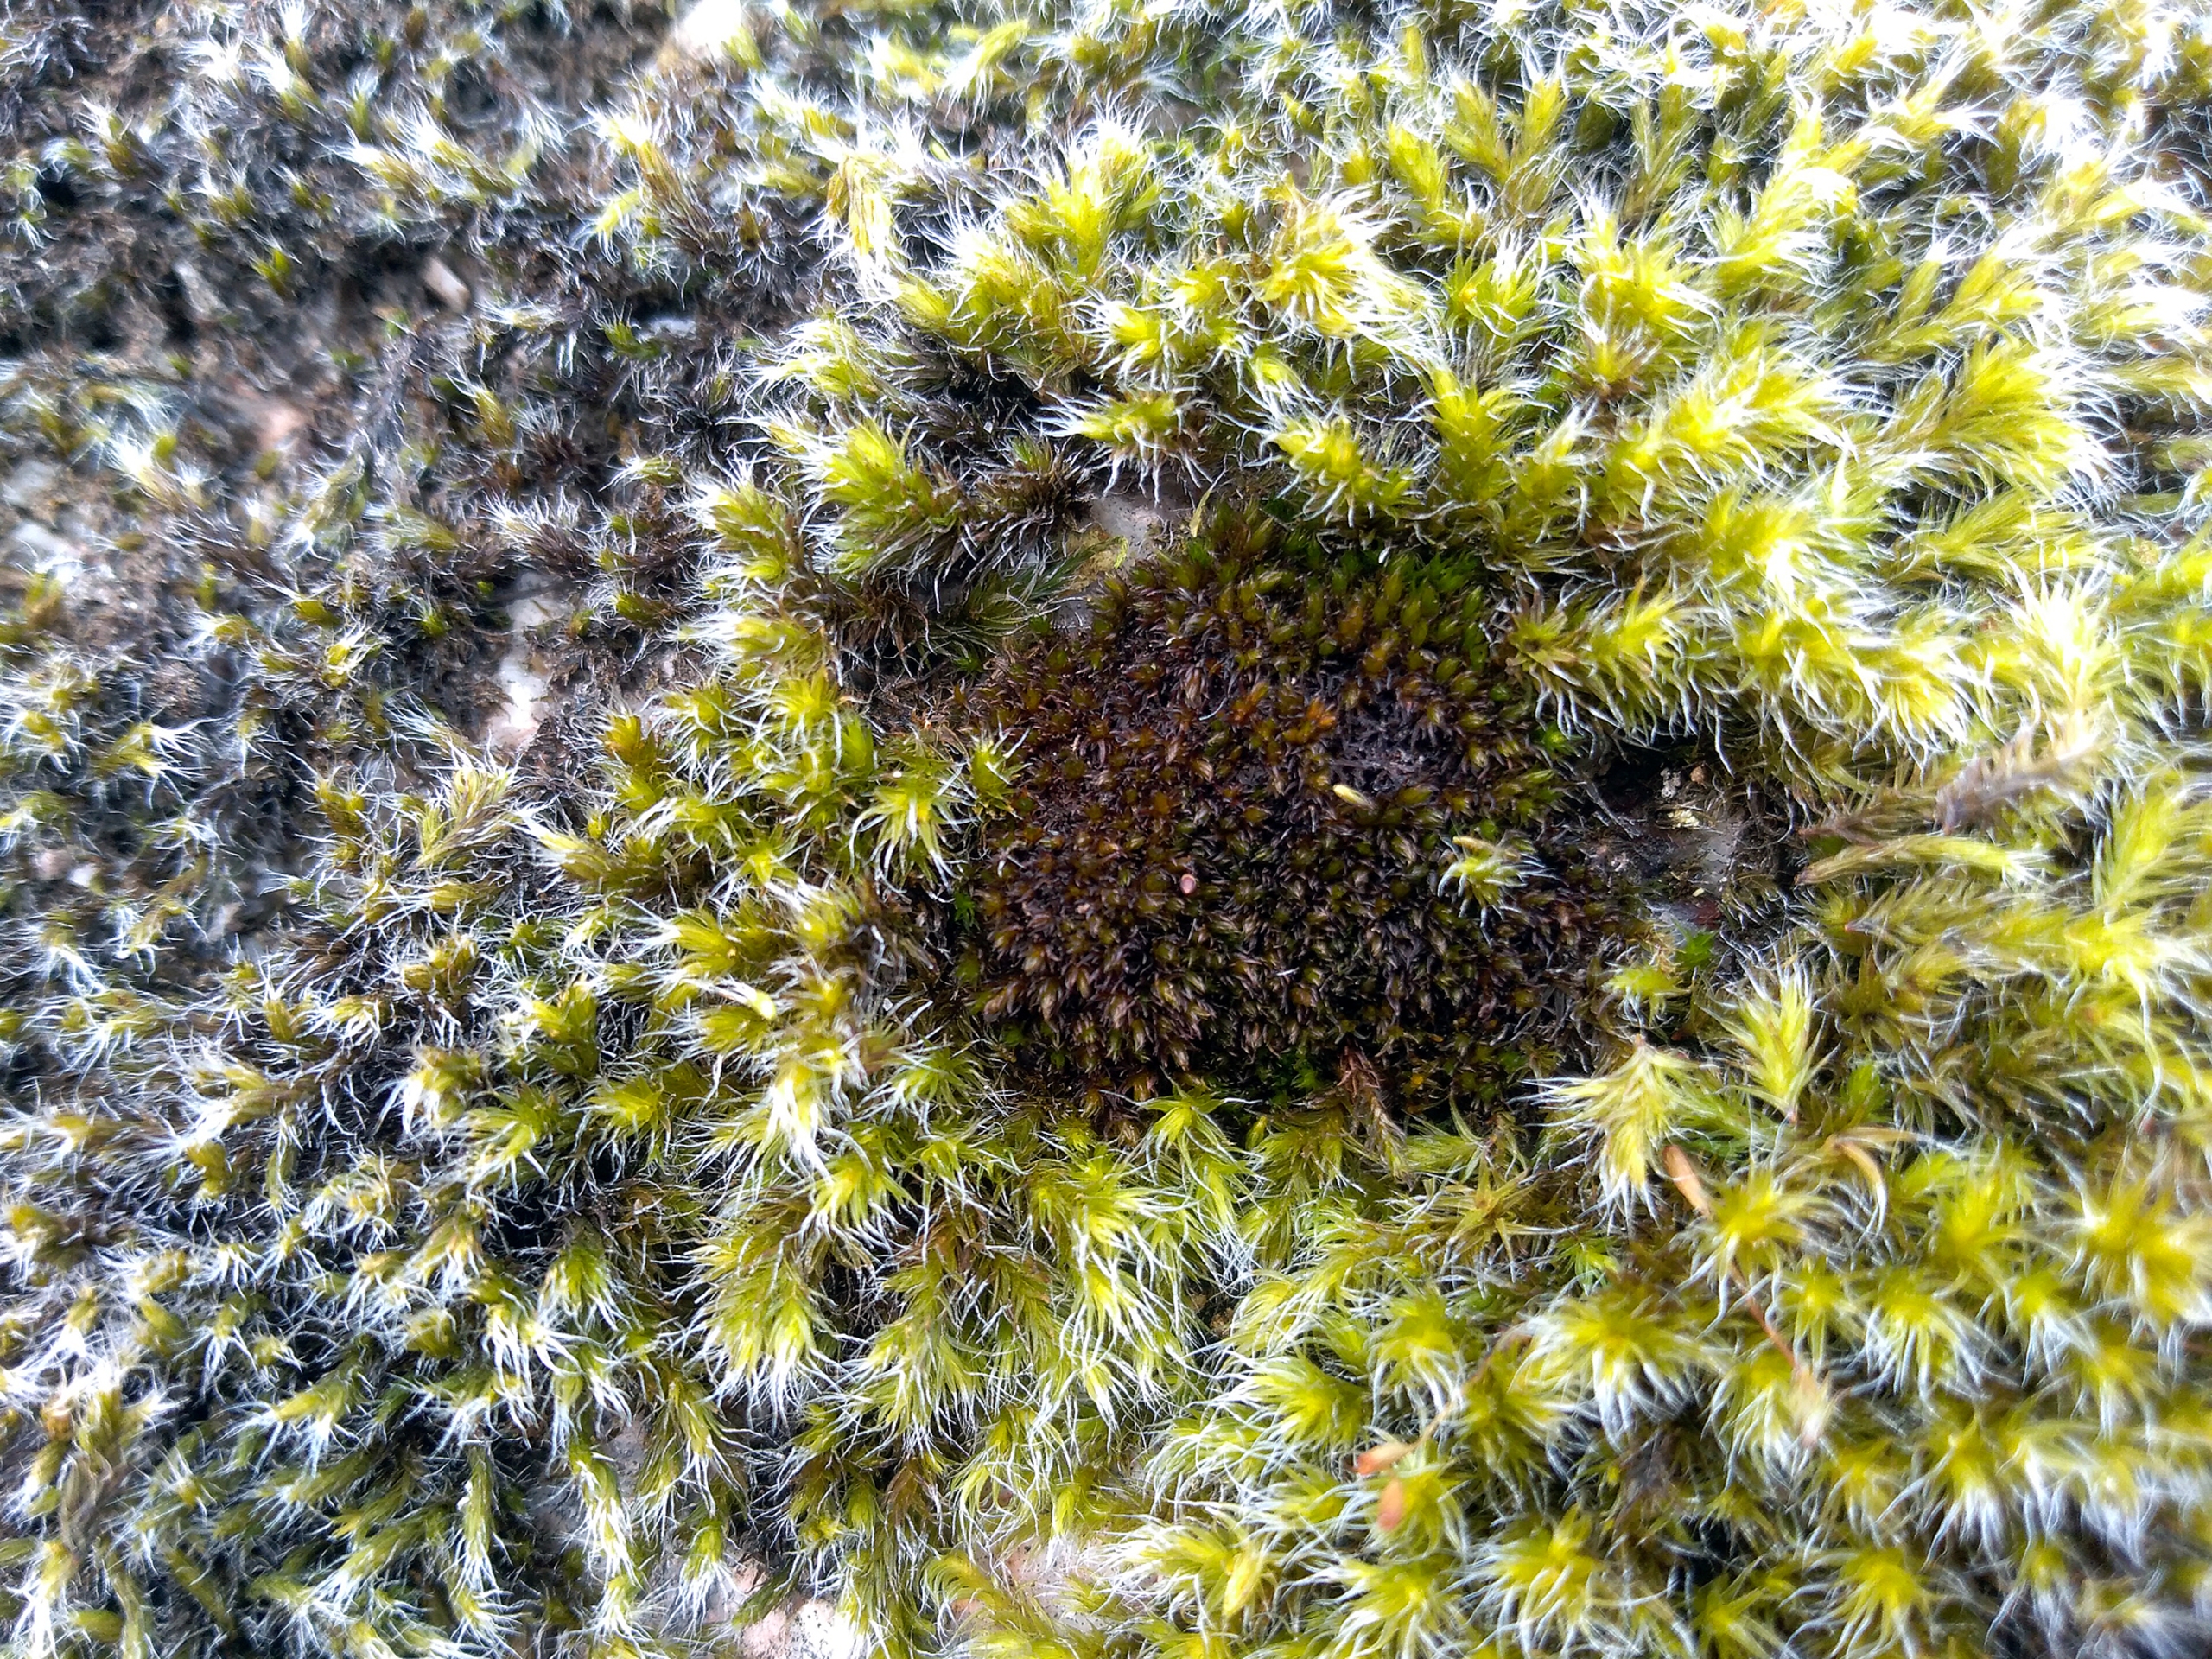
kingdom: Plantae
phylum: Bryophyta
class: Andreaeopsida
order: Andreaeales
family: Andreaeaceae
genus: Andreaea
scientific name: Andreaea rothii
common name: Ribbe-sortmos
